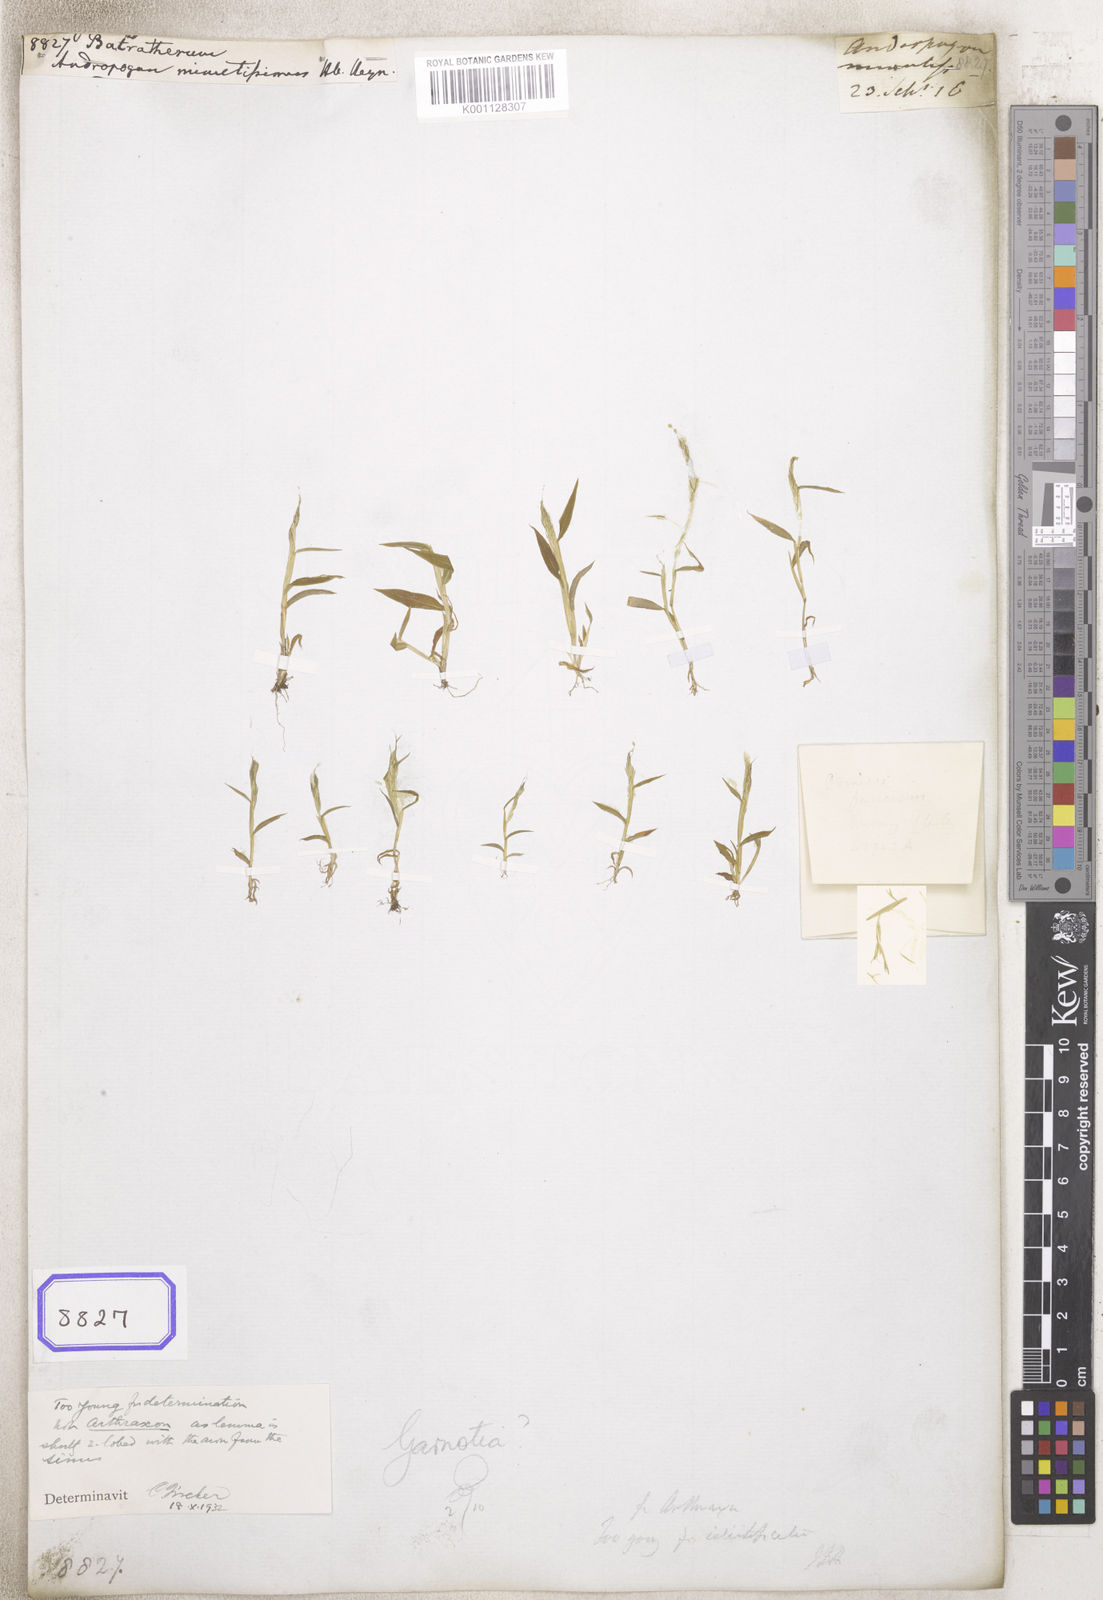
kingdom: Plantae
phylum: Tracheophyta
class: Liliopsida
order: Poales
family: Poaceae
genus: Arthraxon
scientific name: Arthraxon
